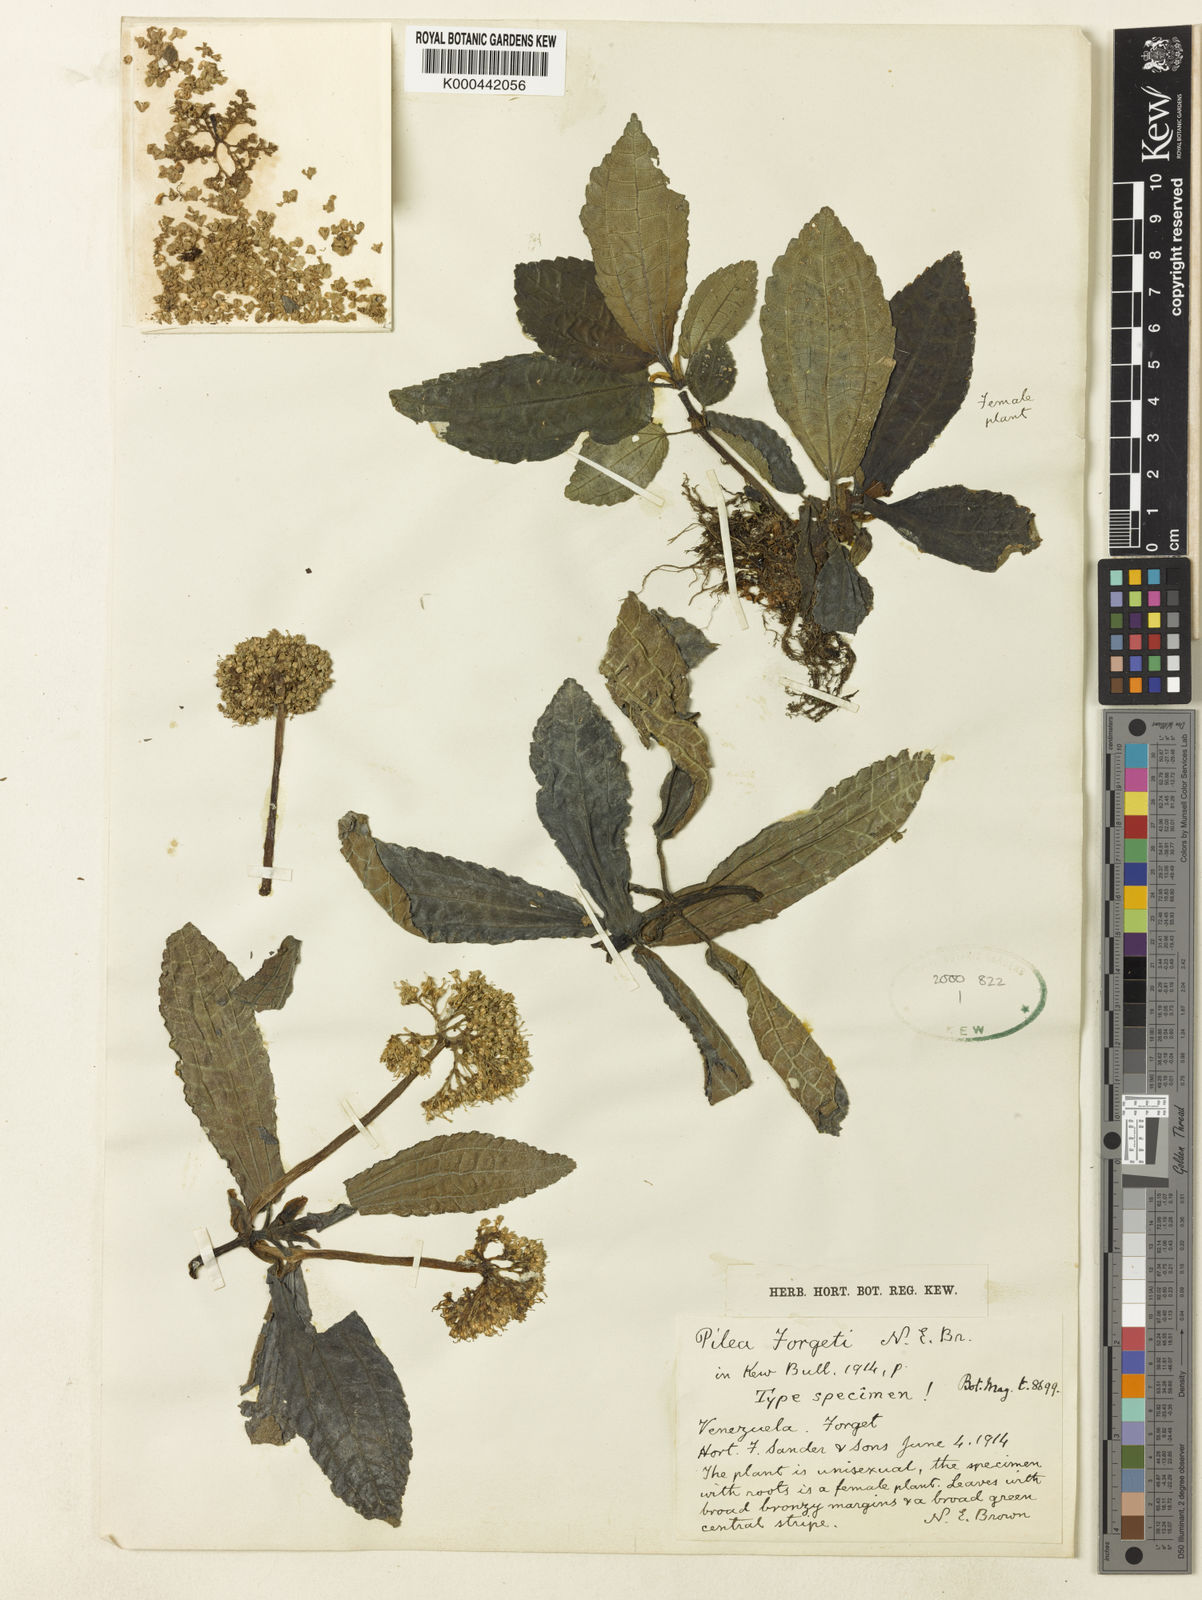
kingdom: Plantae
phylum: Tracheophyta
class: Magnoliopsida
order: Rosales
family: Urticaceae
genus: Pilea
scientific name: Pilea forgetii
